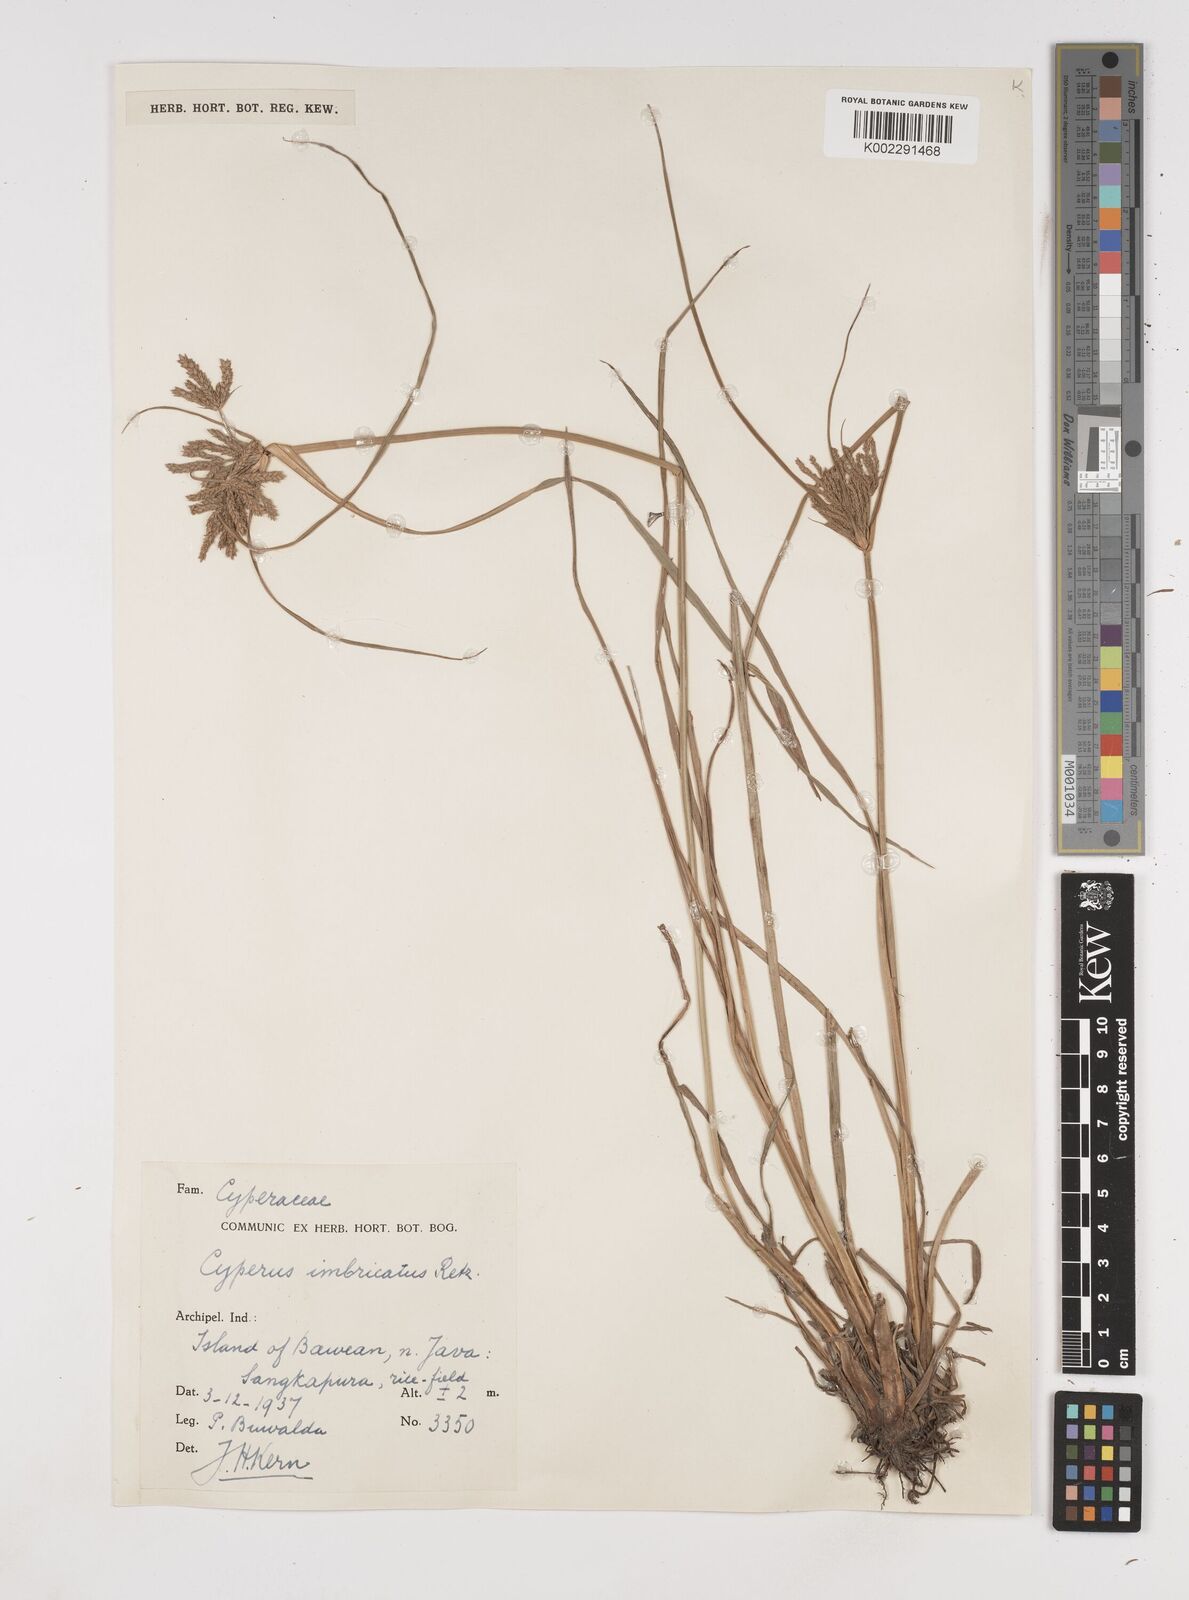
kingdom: Plantae
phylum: Tracheophyta
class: Liliopsida
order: Poales
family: Cyperaceae
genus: Cyperus
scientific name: Cyperus imbricatus
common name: Shingle flatsedge
